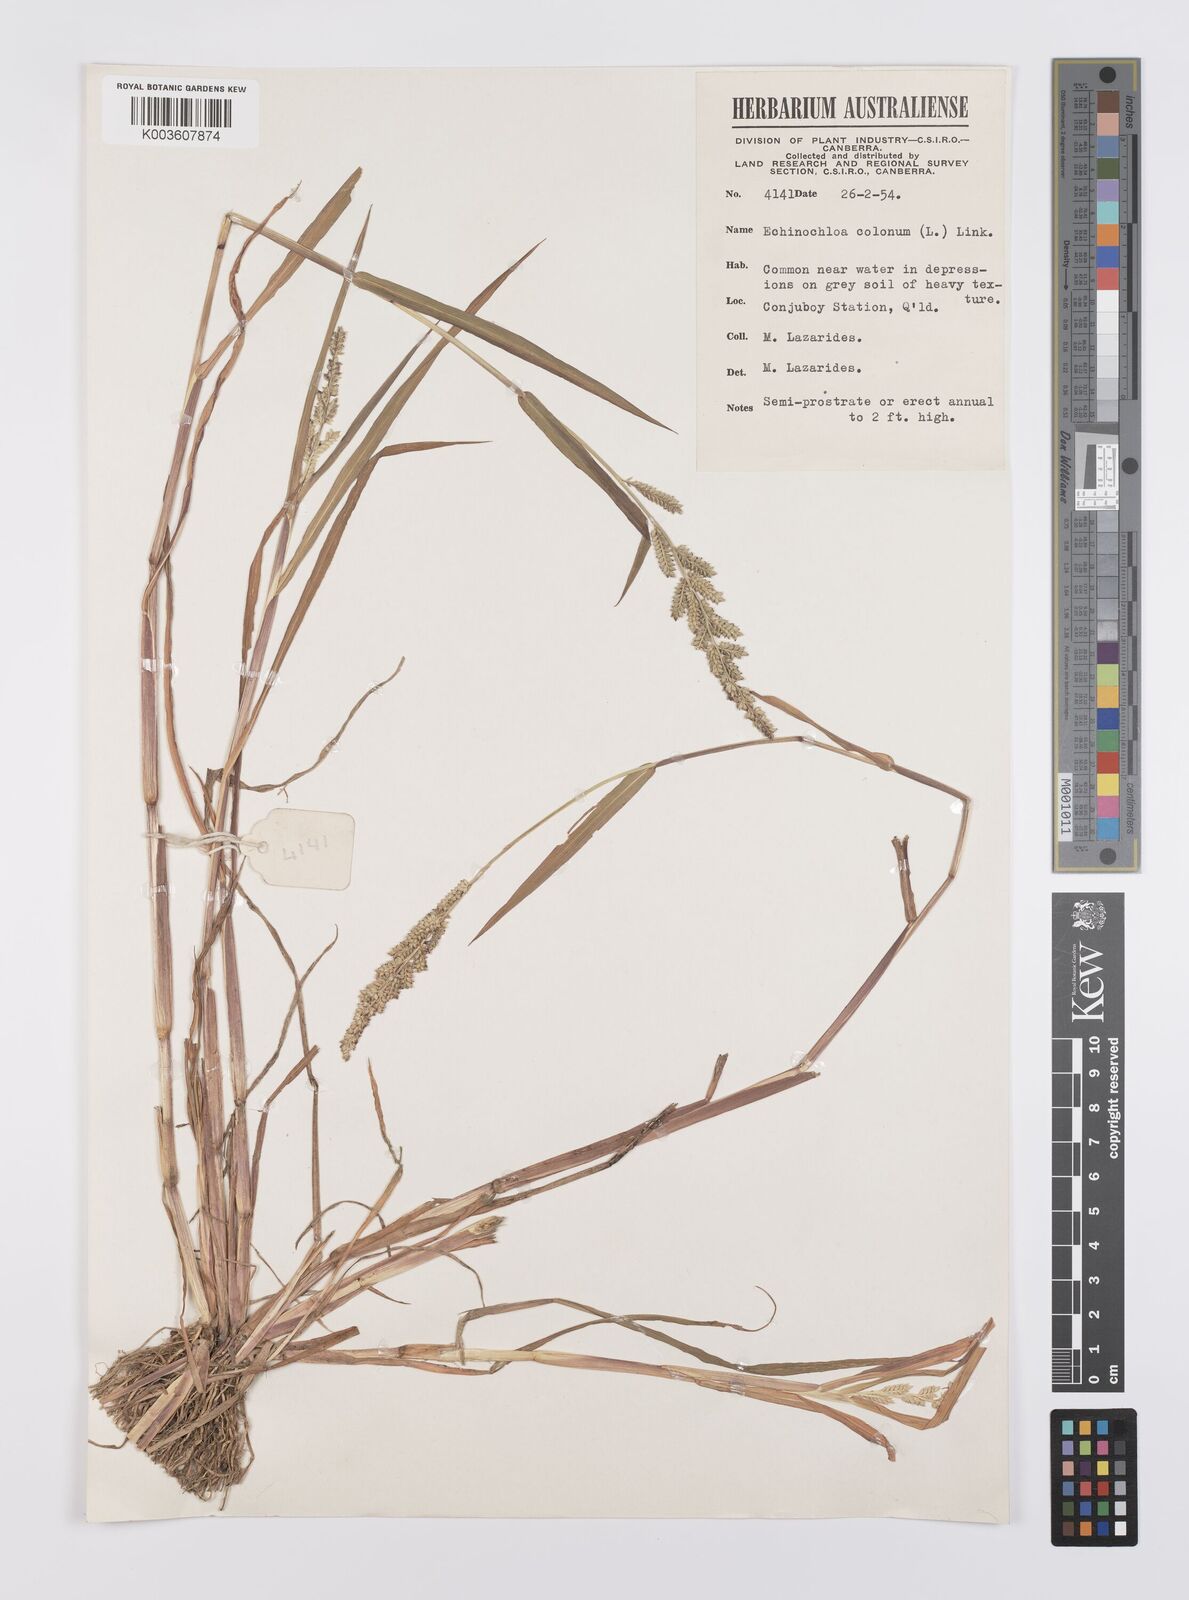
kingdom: Plantae
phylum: Tracheophyta
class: Liliopsida
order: Poales
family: Poaceae
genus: Echinochloa
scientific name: Echinochloa colonum
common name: Jungle rice
